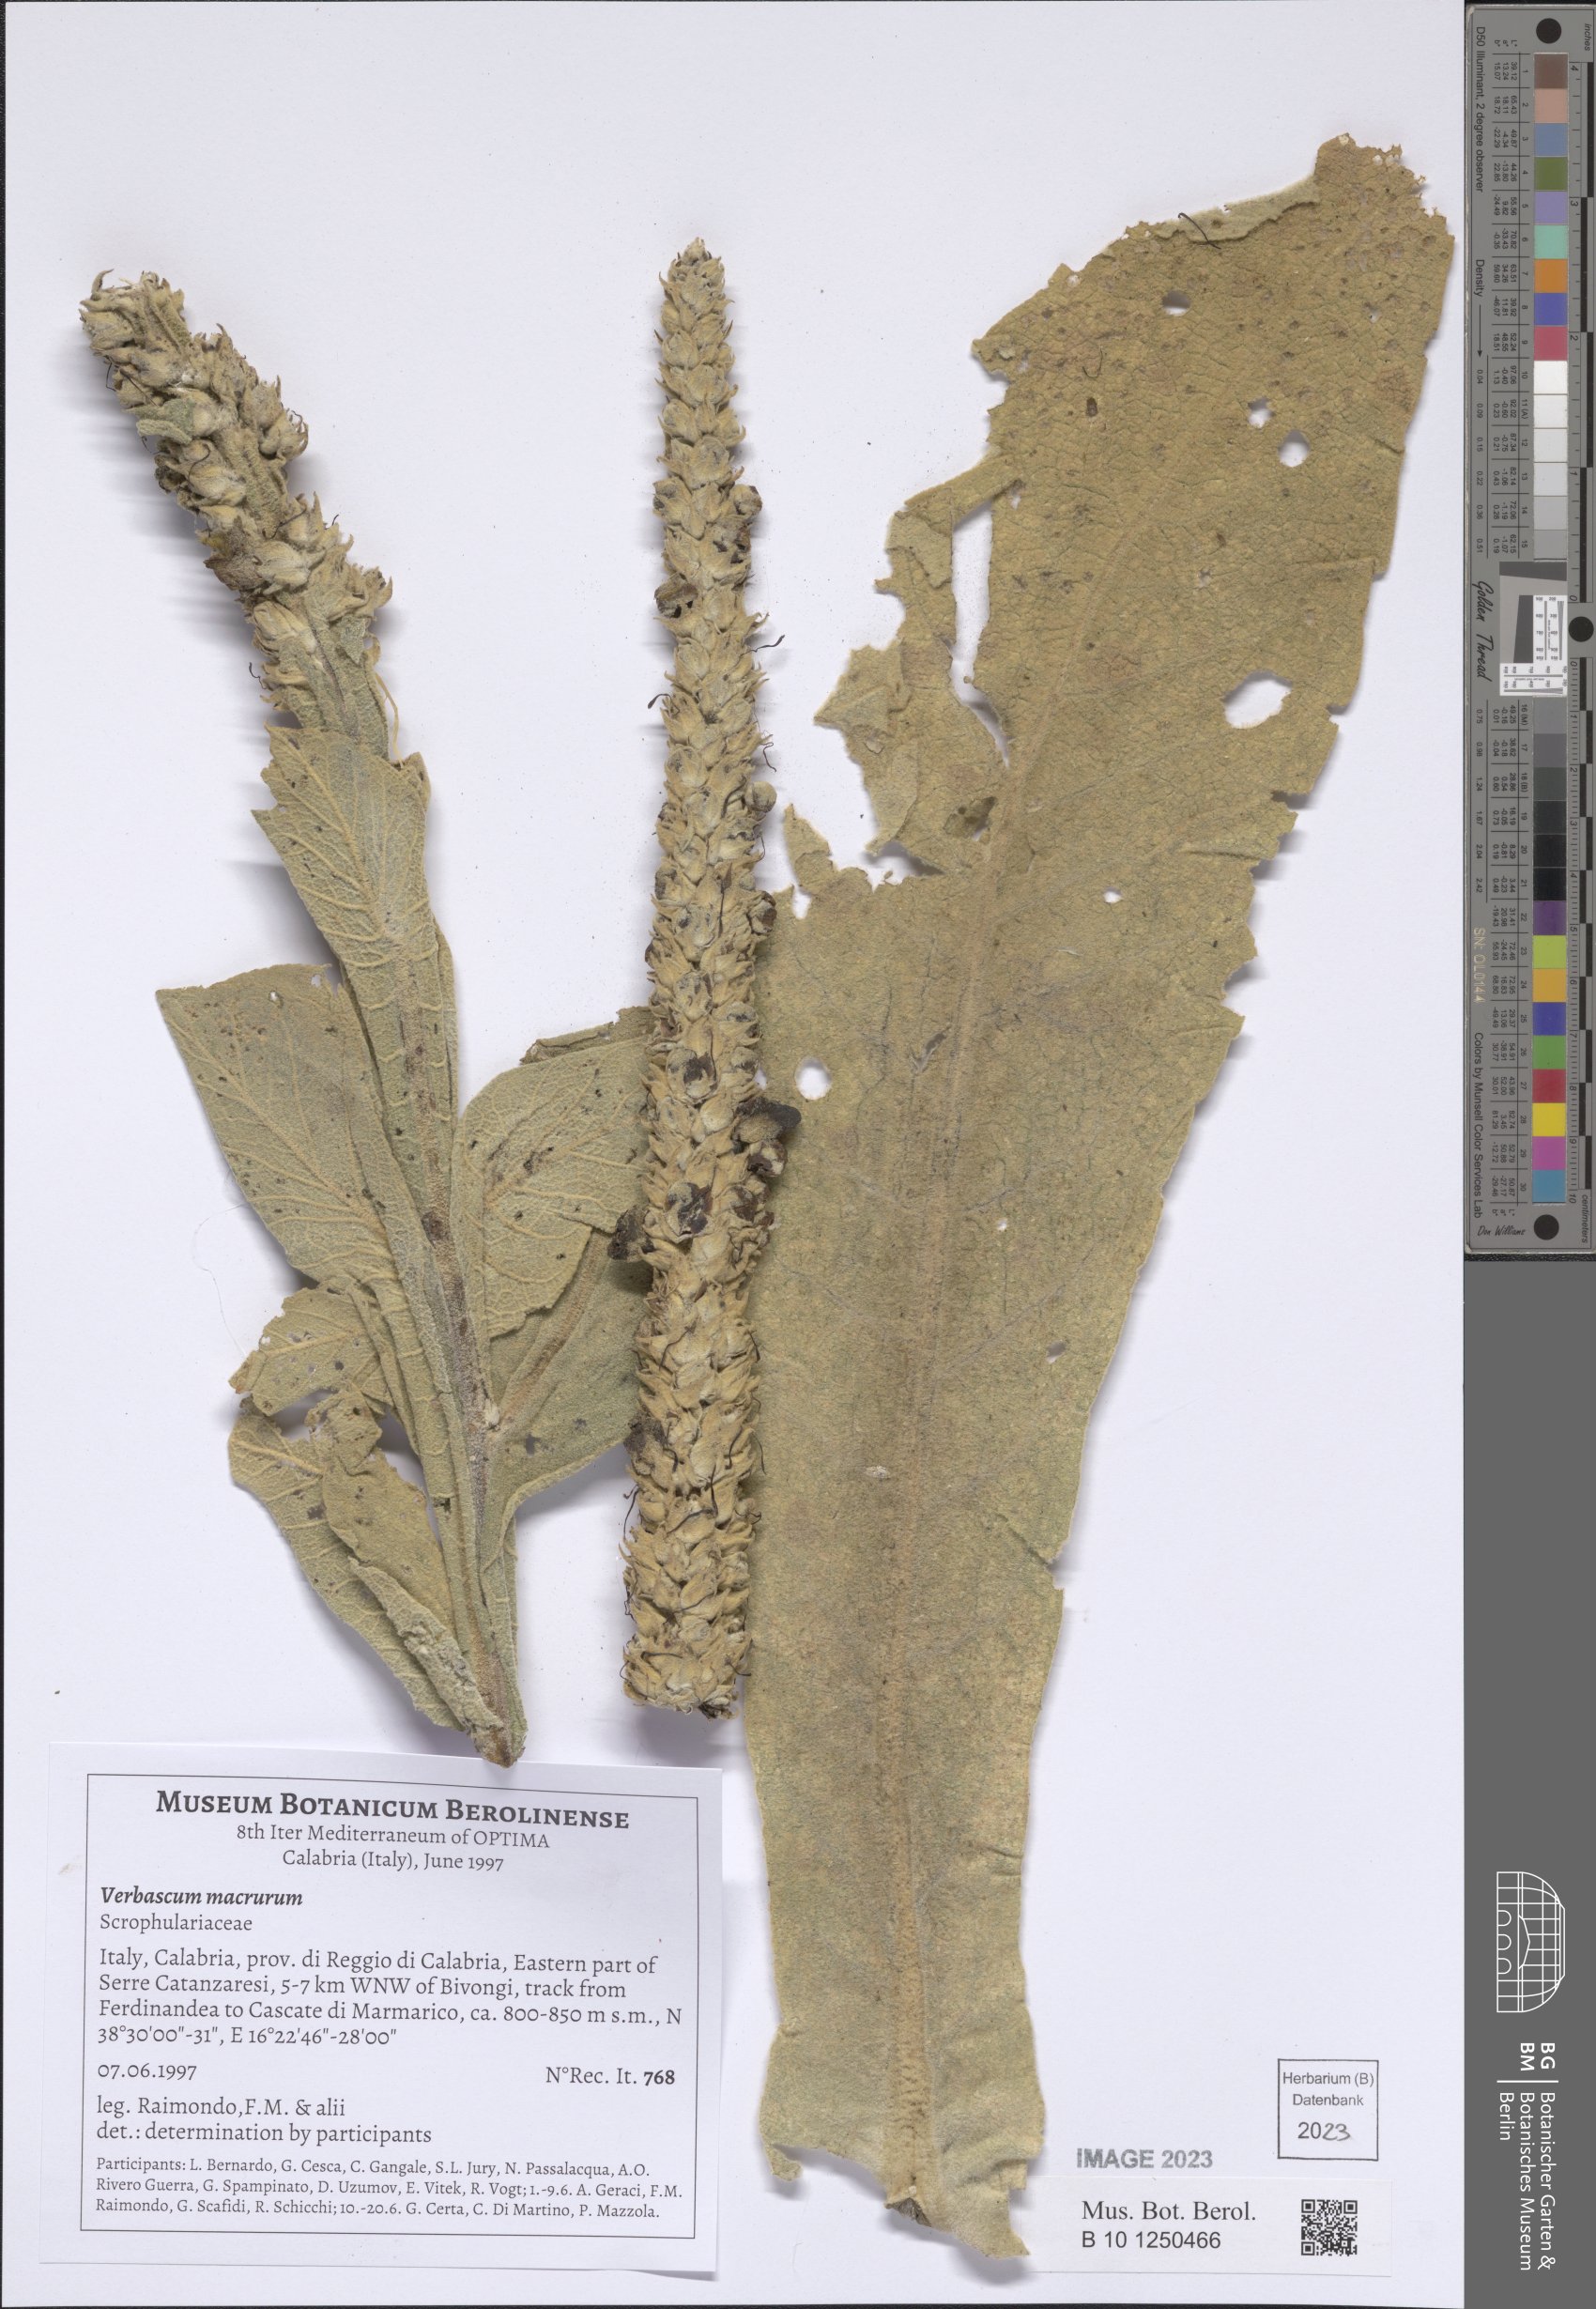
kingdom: Plantae
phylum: Tracheophyta
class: Magnoliopsida
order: Lamiales
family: Scrophulariaceae
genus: Verbascum
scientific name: Verbascum macrurum
